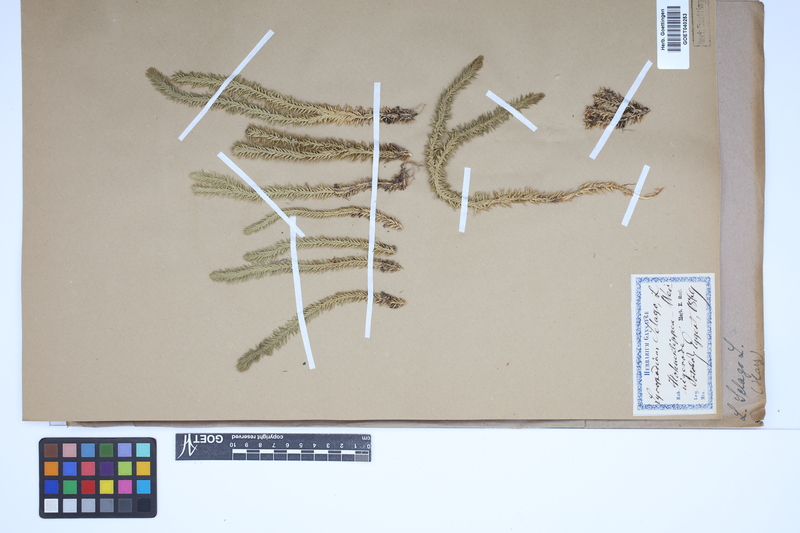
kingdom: Plantae
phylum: Tracheophyta
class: Lycopodiopsida
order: Lycopodiales
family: Lycopodiaceae
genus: Huperzia
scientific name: Huperzia selago
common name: Northern firmoss
